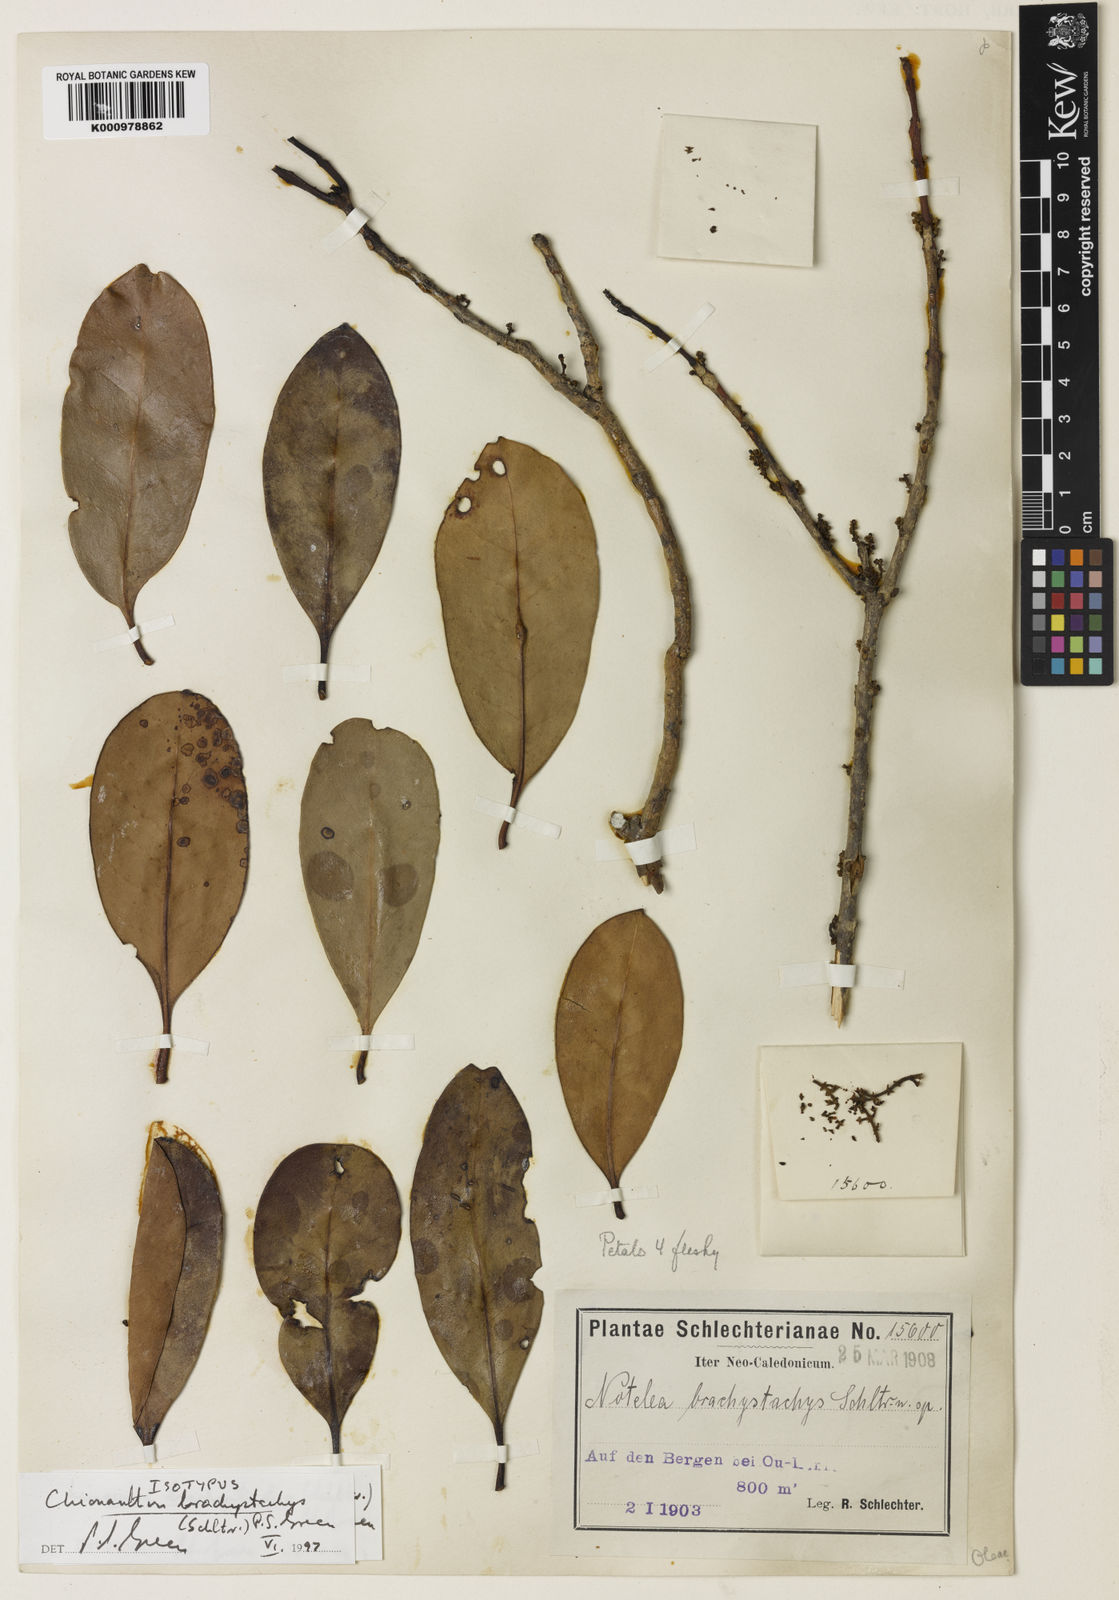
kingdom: Plantae
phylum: Tracheophyta
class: Magnoliopsida
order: Lamiales
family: Oleaceae
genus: Chionanthus
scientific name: Chionanthus brachystachys
